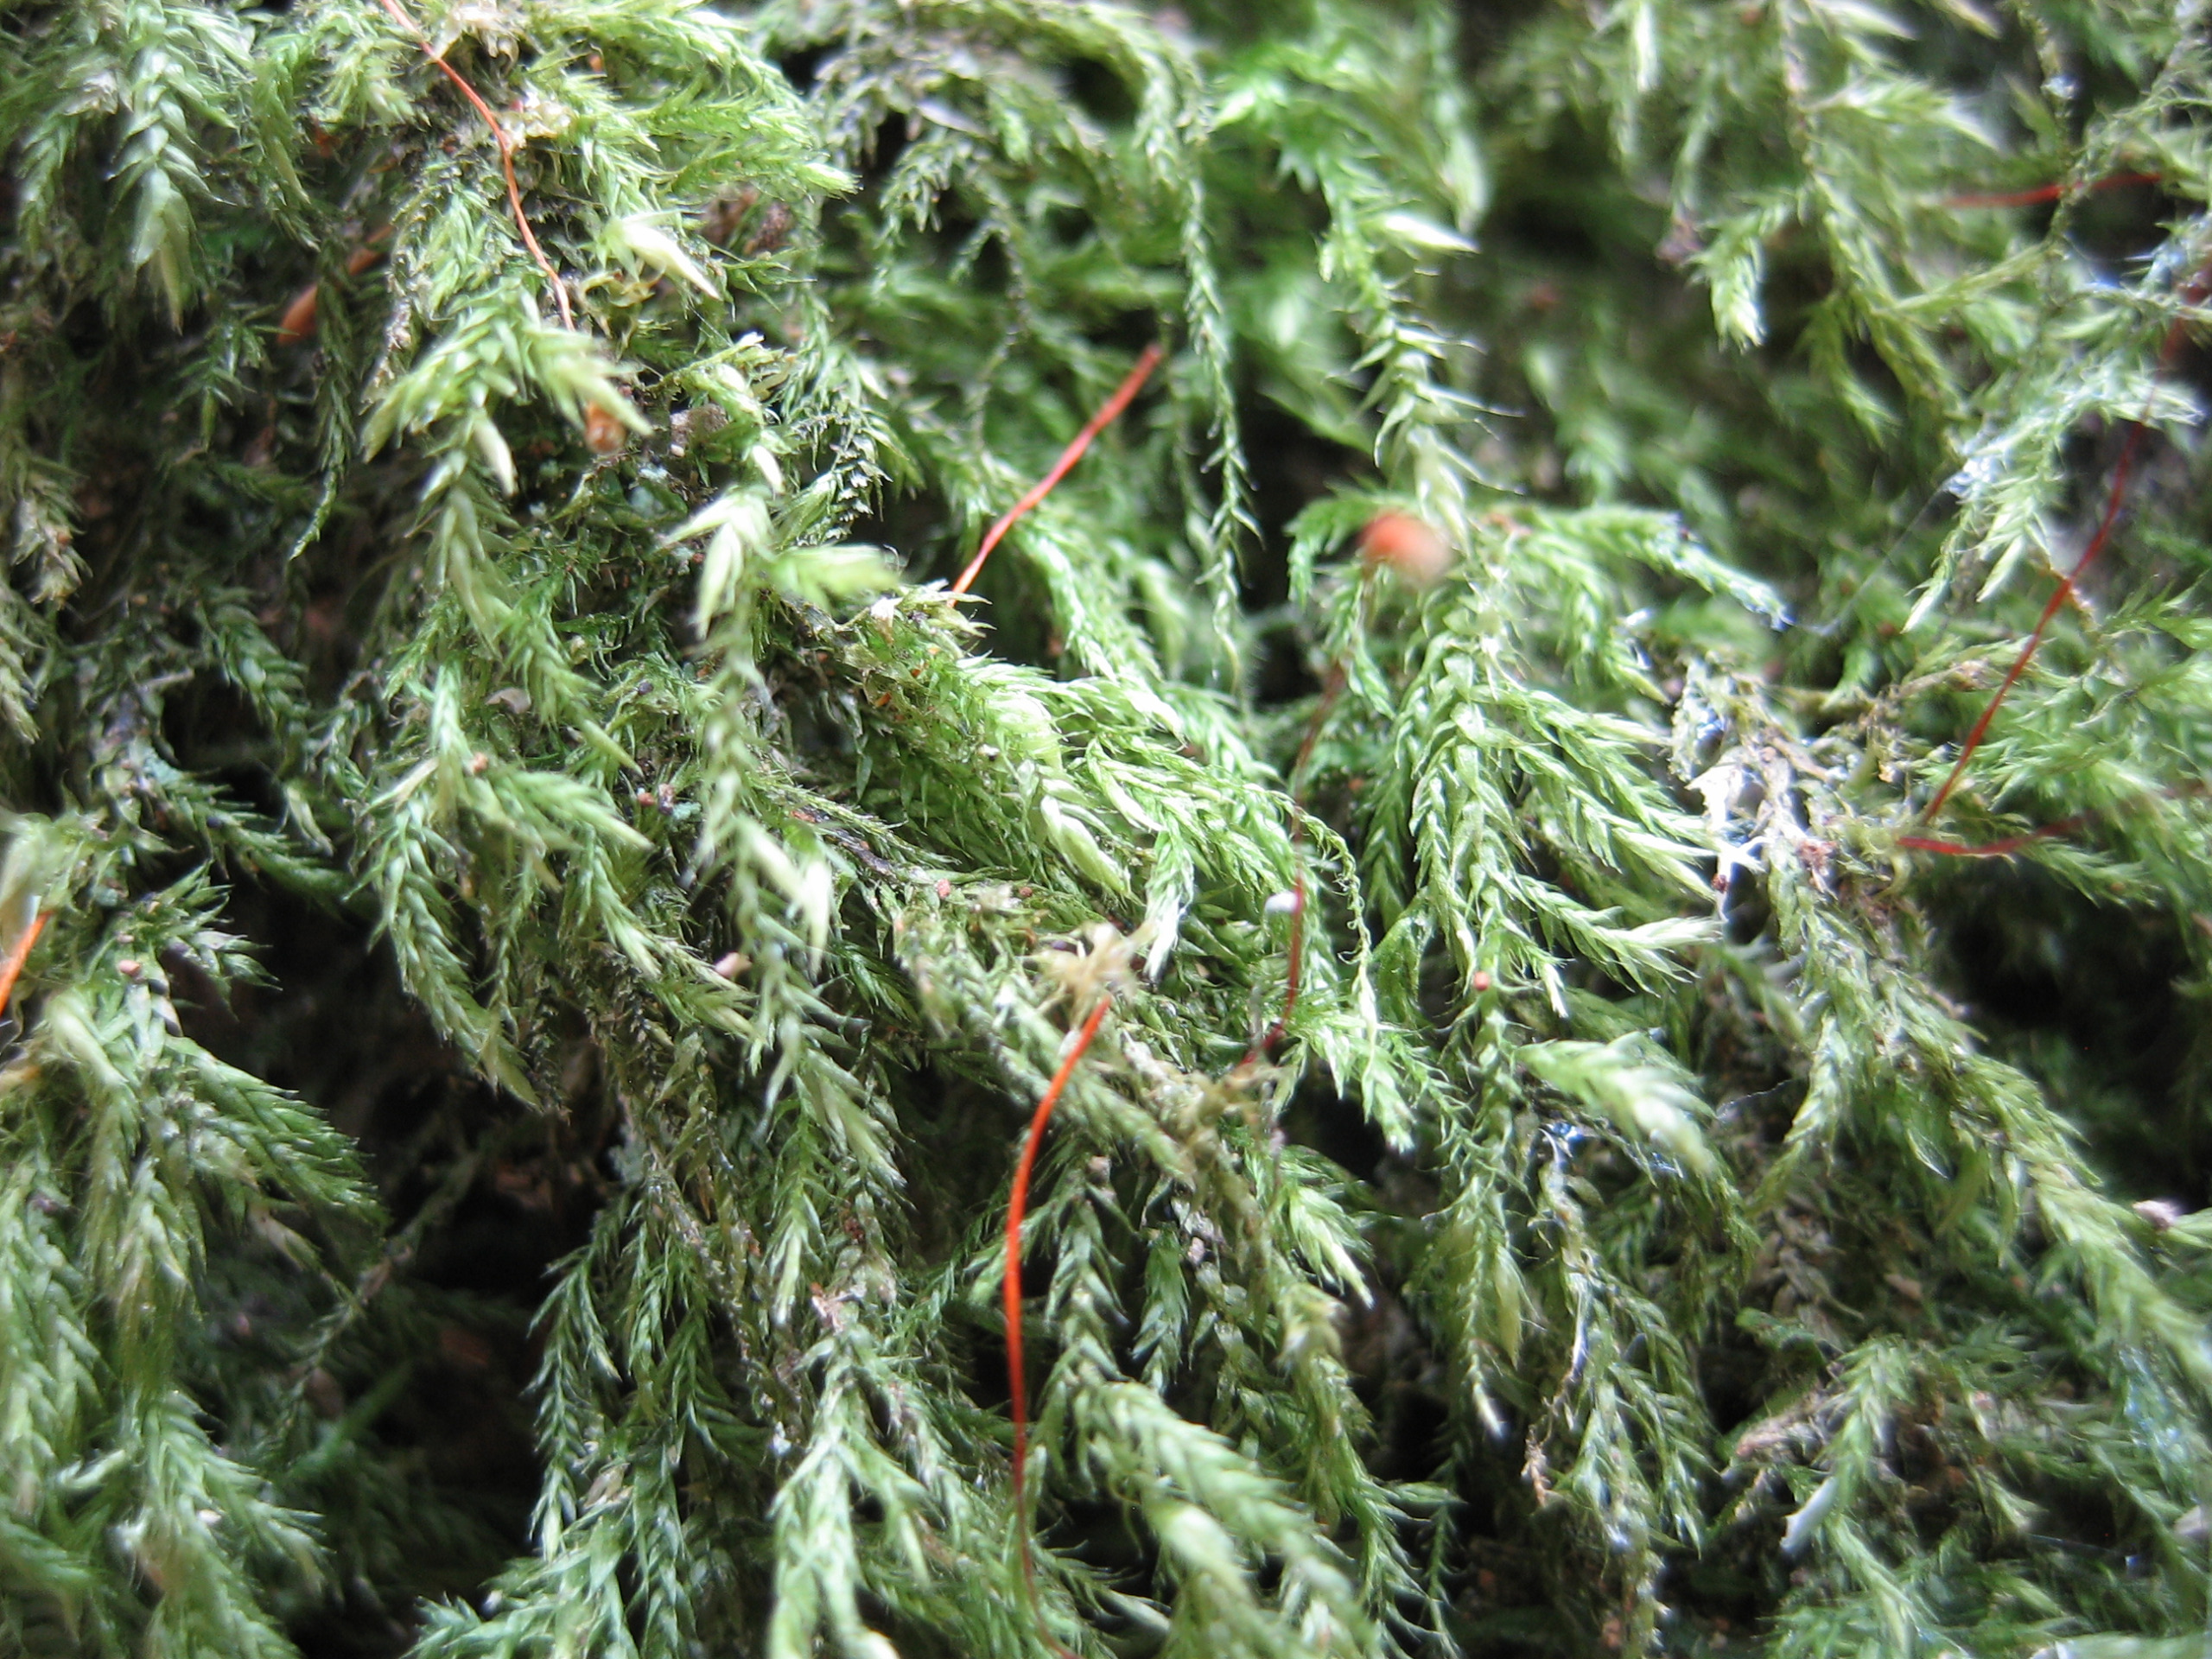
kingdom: Plantae
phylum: Bryophyta
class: Bryopsida
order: Hypnales
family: Lembophyllaceae
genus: Pseudisothecium
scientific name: Pseudisothecium myosuroides
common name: Slank stammemos
